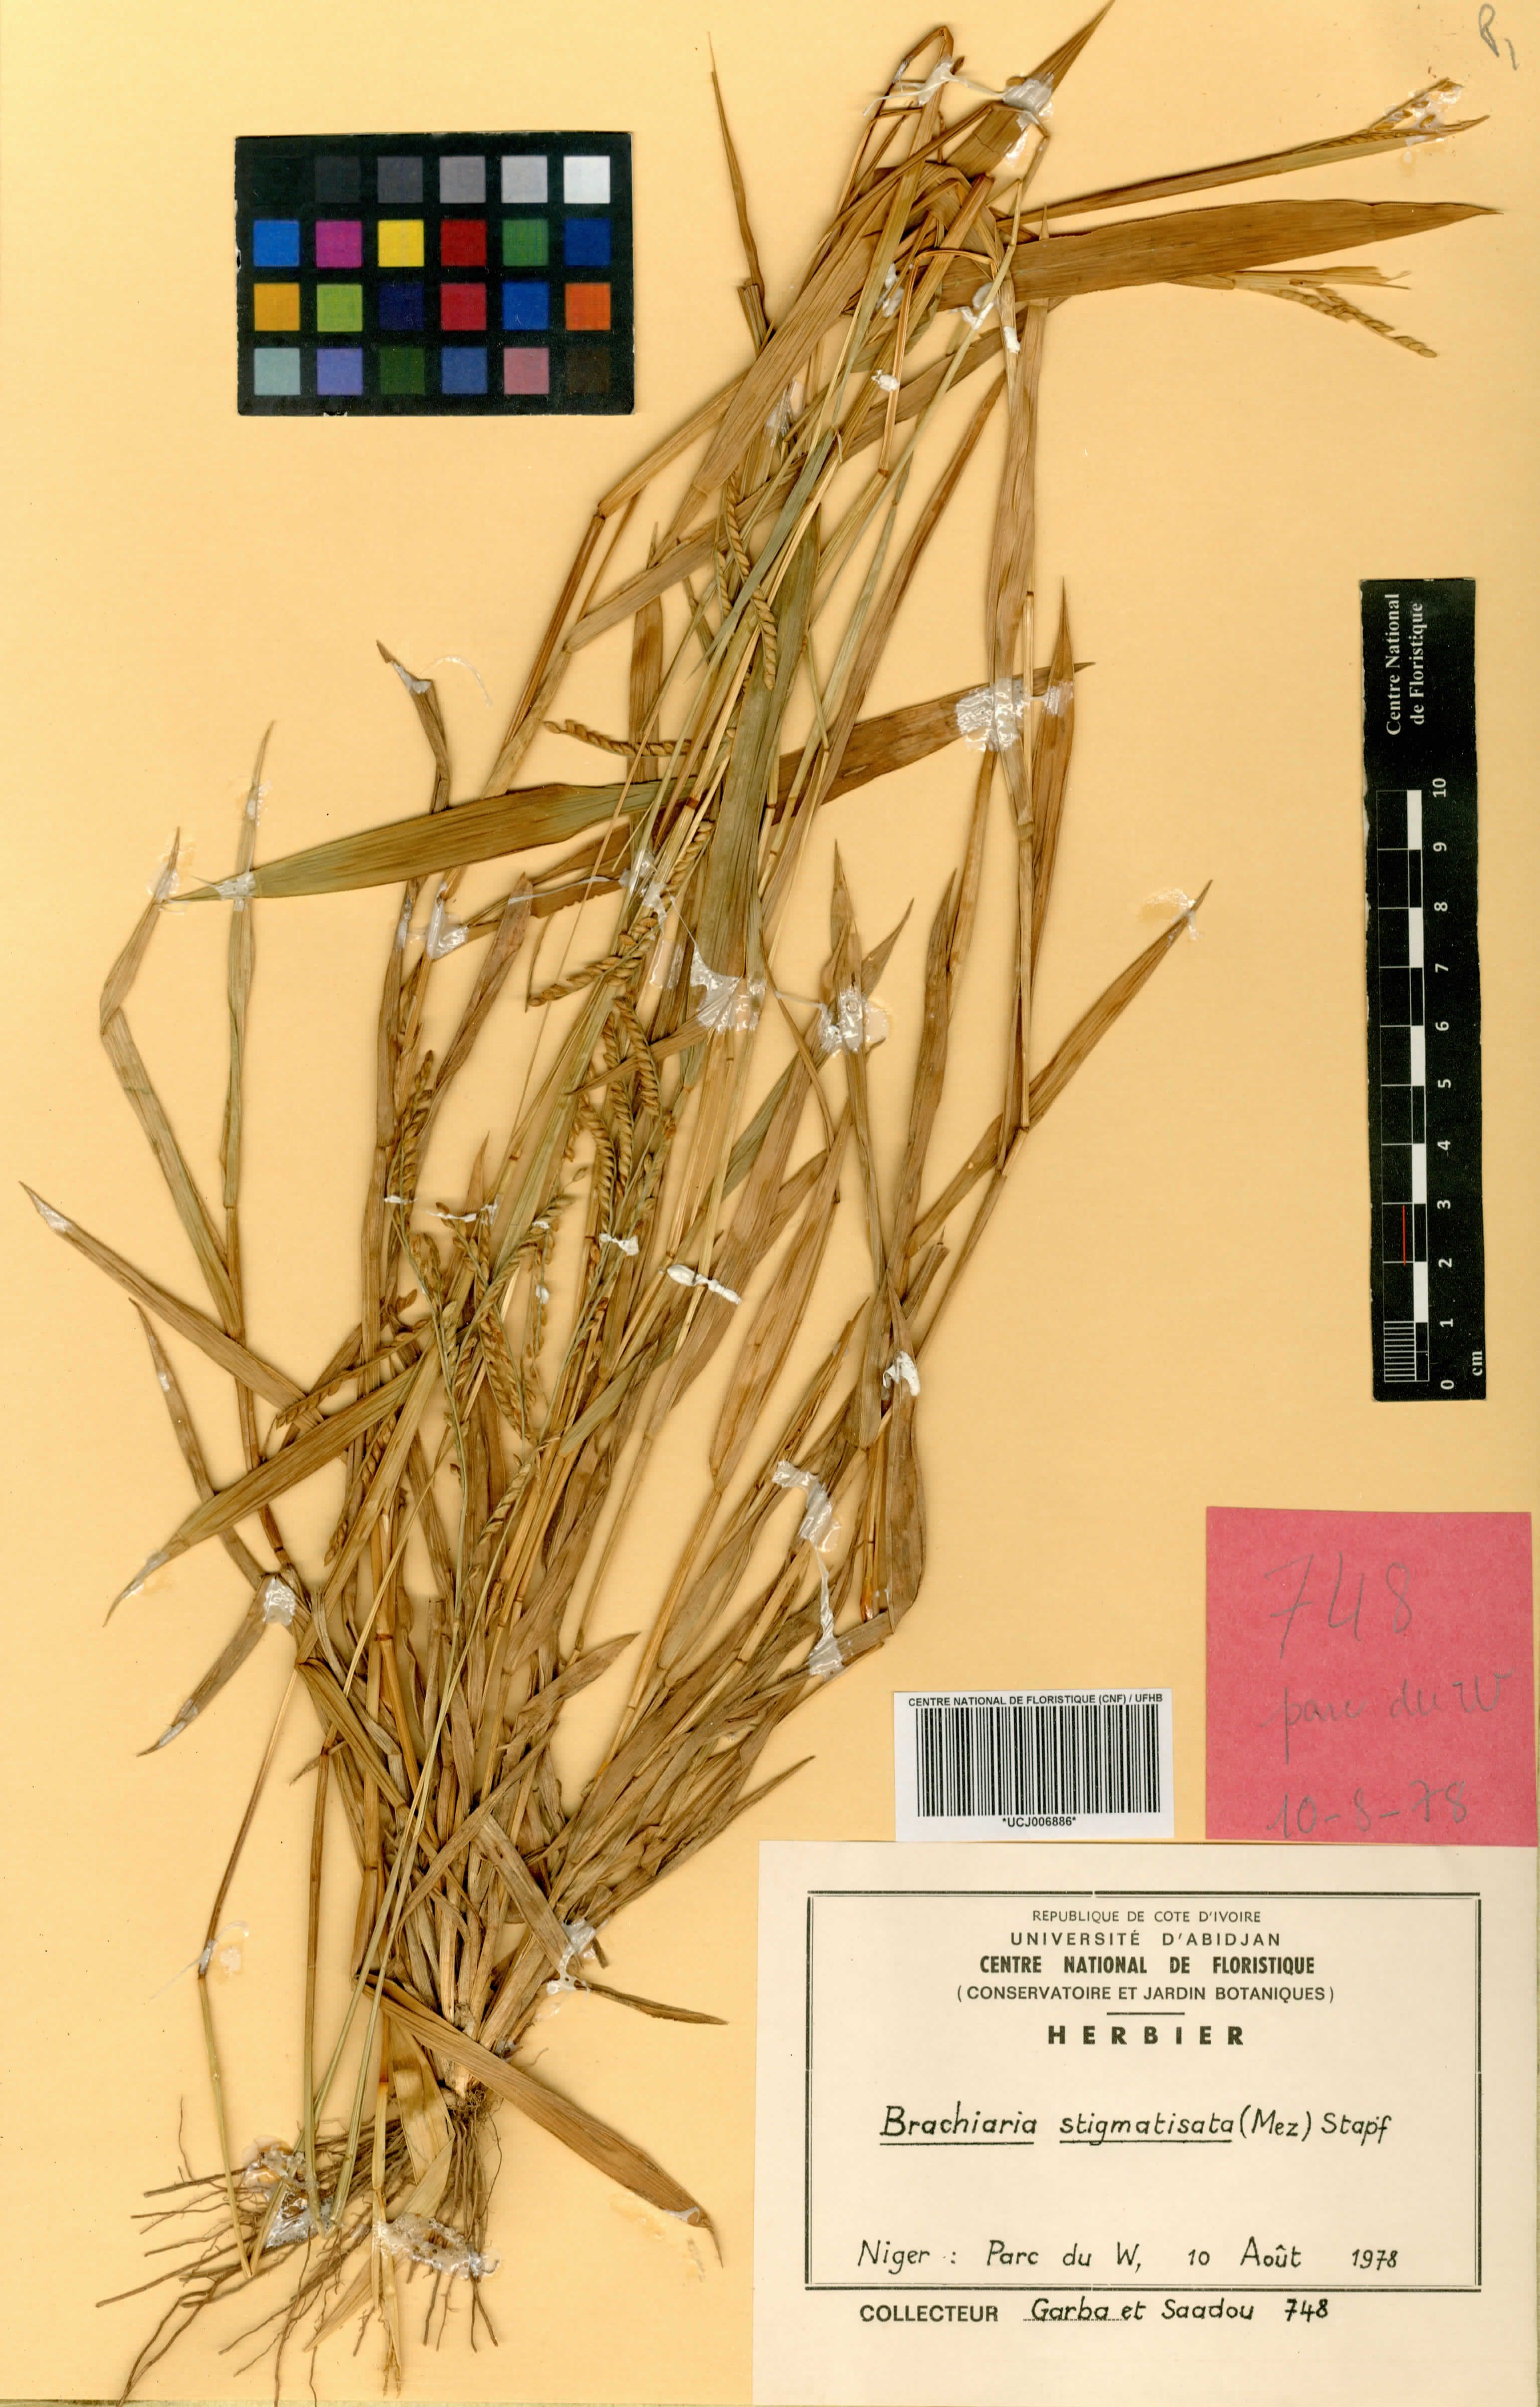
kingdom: Plantae
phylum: Tracheophyta
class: Liliopsida
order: Poales
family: Poaceae
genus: Urochloa
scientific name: Urochloa stigmatisata
